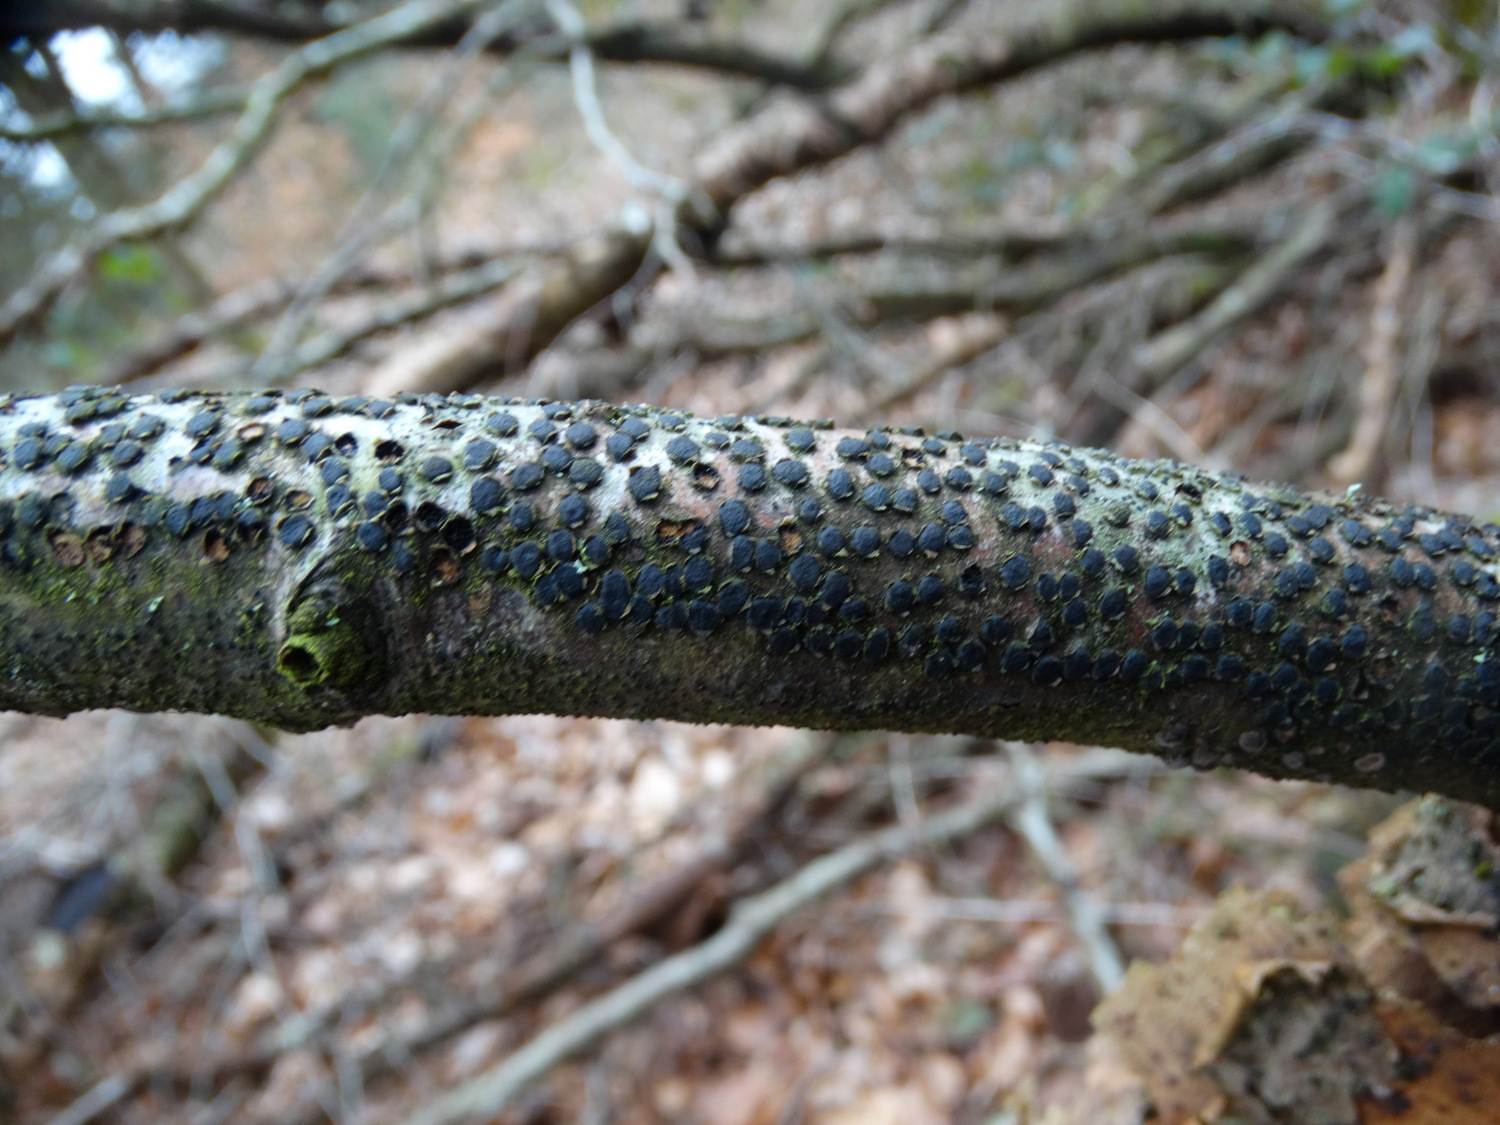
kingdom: Fungi
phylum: Ascomycota
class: Sordariomycetes
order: Xylariales
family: Diatrypaceae
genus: Diatrype
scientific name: Diatrype disciformis
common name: kant-kulskorpe
